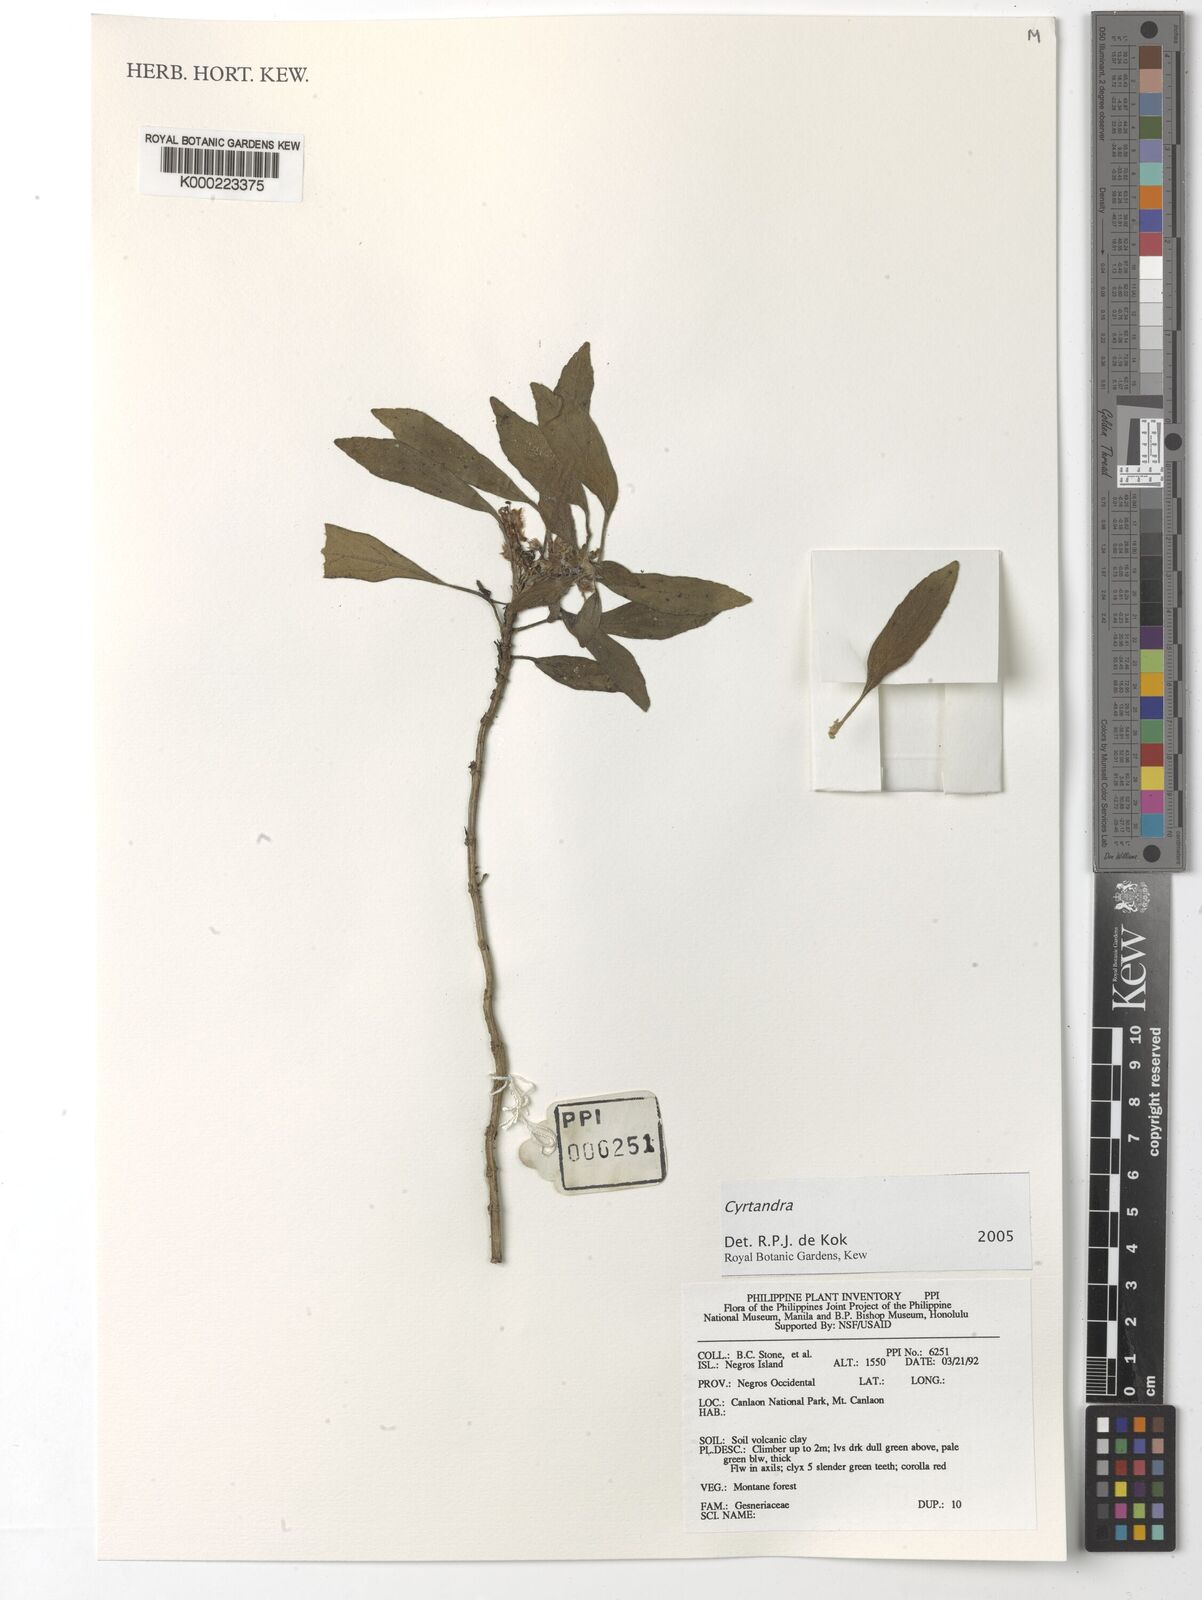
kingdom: Plantae
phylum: Tracheophyta
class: Magnoliopsida
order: Lamiales
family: Gesneriaceae
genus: Cyrtandra
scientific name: Cyrtandra
